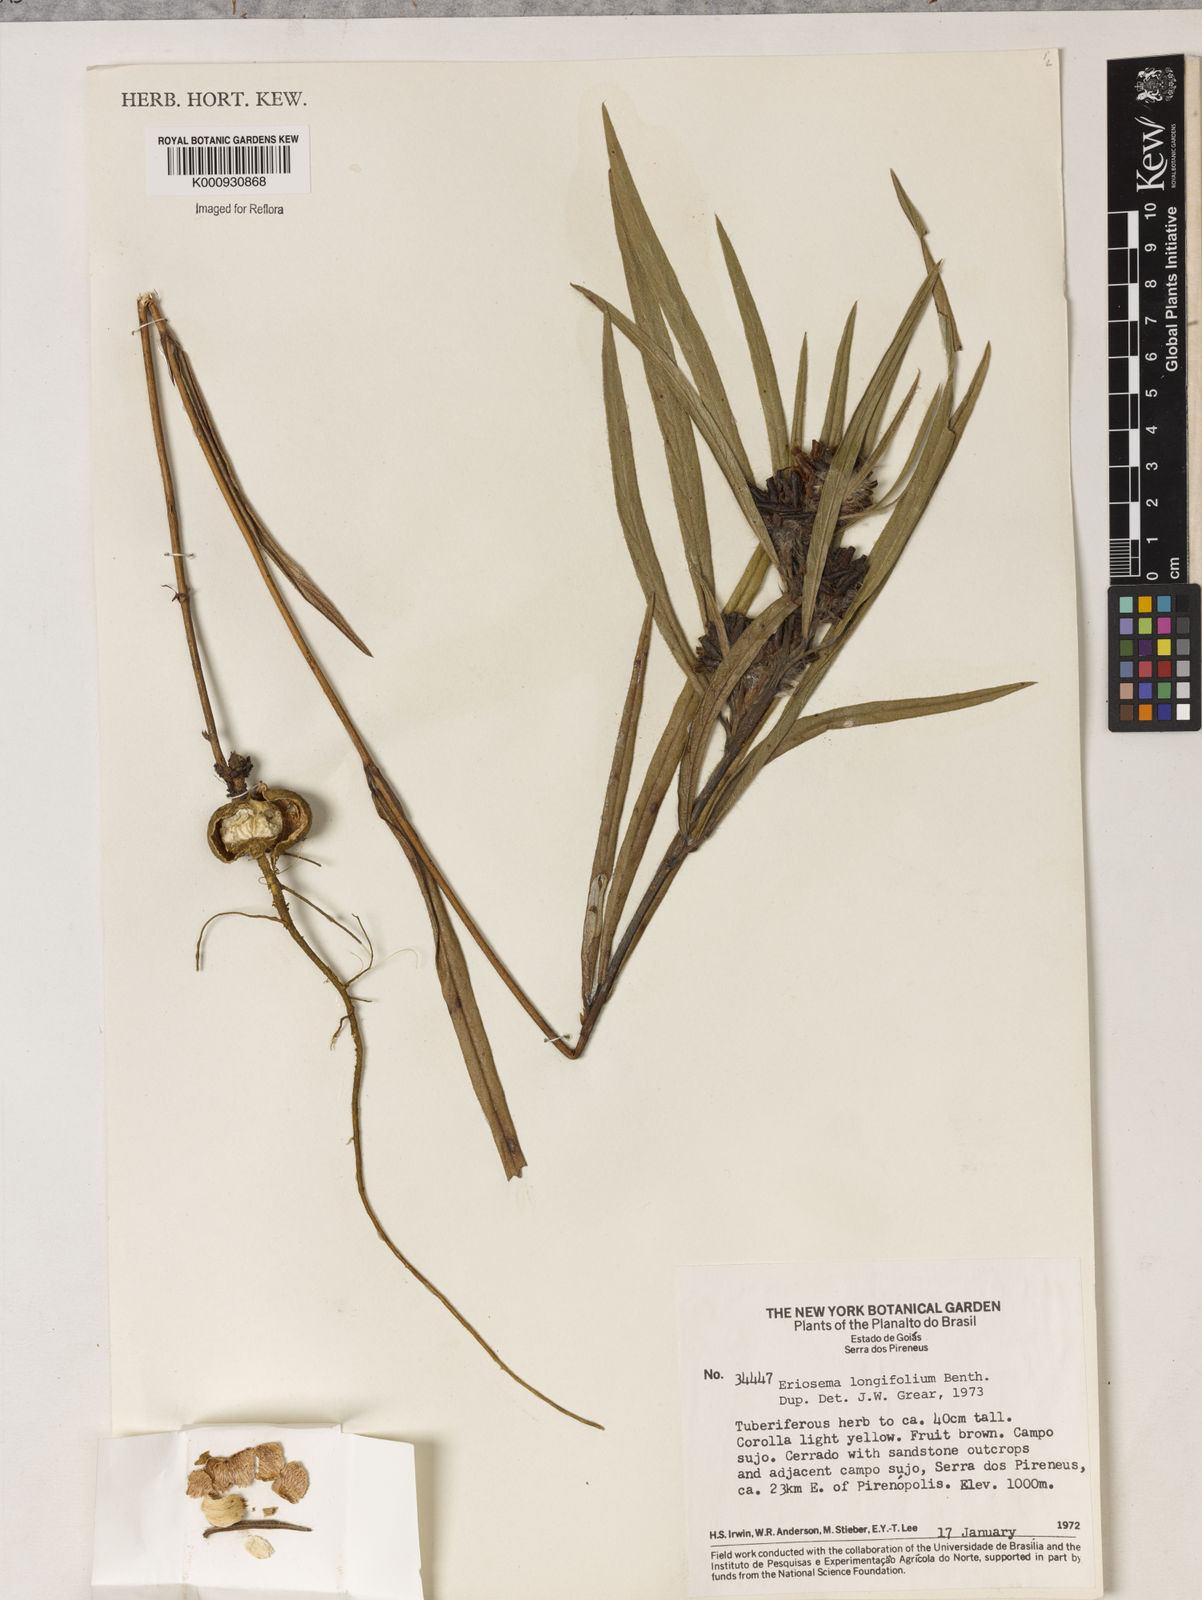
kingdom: Plantae
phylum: Tracheophyta
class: Magnoliopsida
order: Fabales
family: Fabaceae
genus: Eriosema
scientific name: Eriosema longifolium
